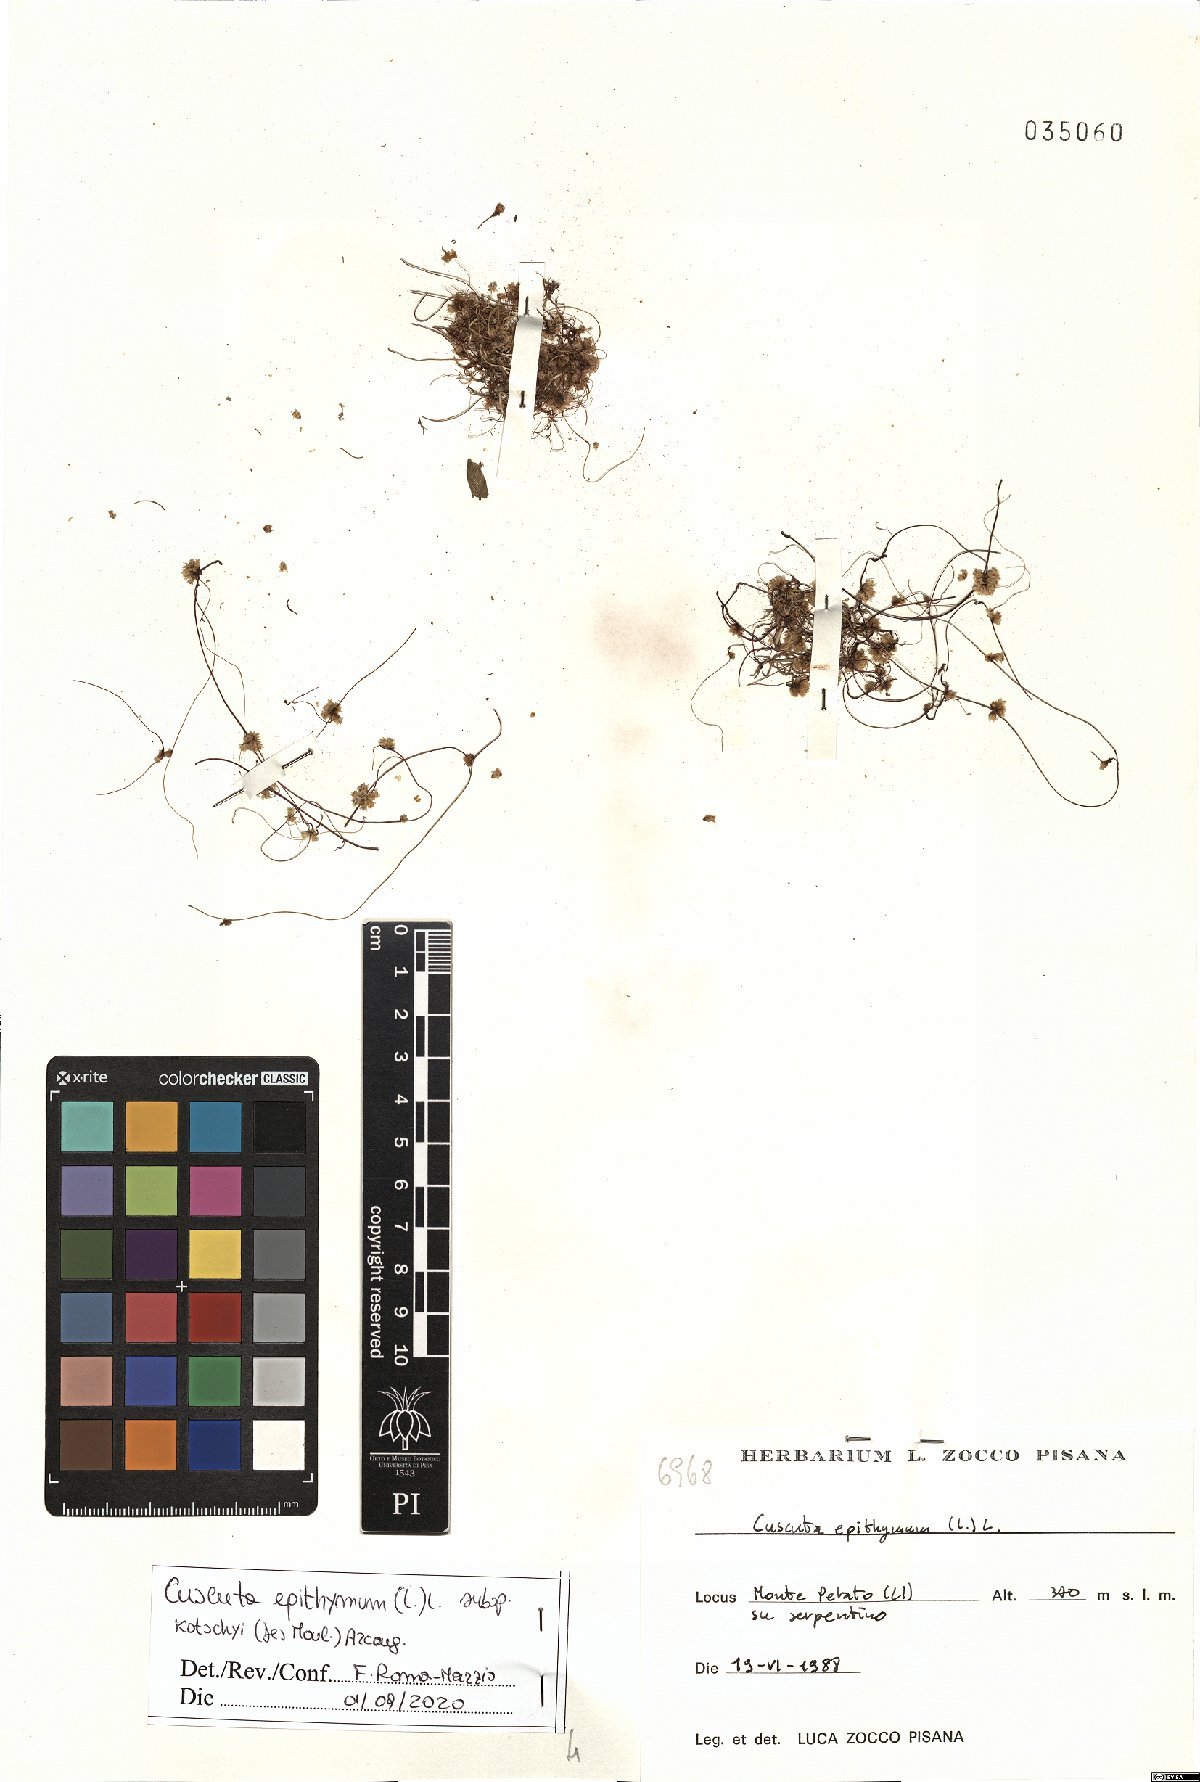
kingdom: Plantae
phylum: Tracheophyta
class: Magnoliopsida
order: Solanales
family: Convolvulaceae
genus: Cuscuta
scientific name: Cuscuta epithymum
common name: Clover dodder
